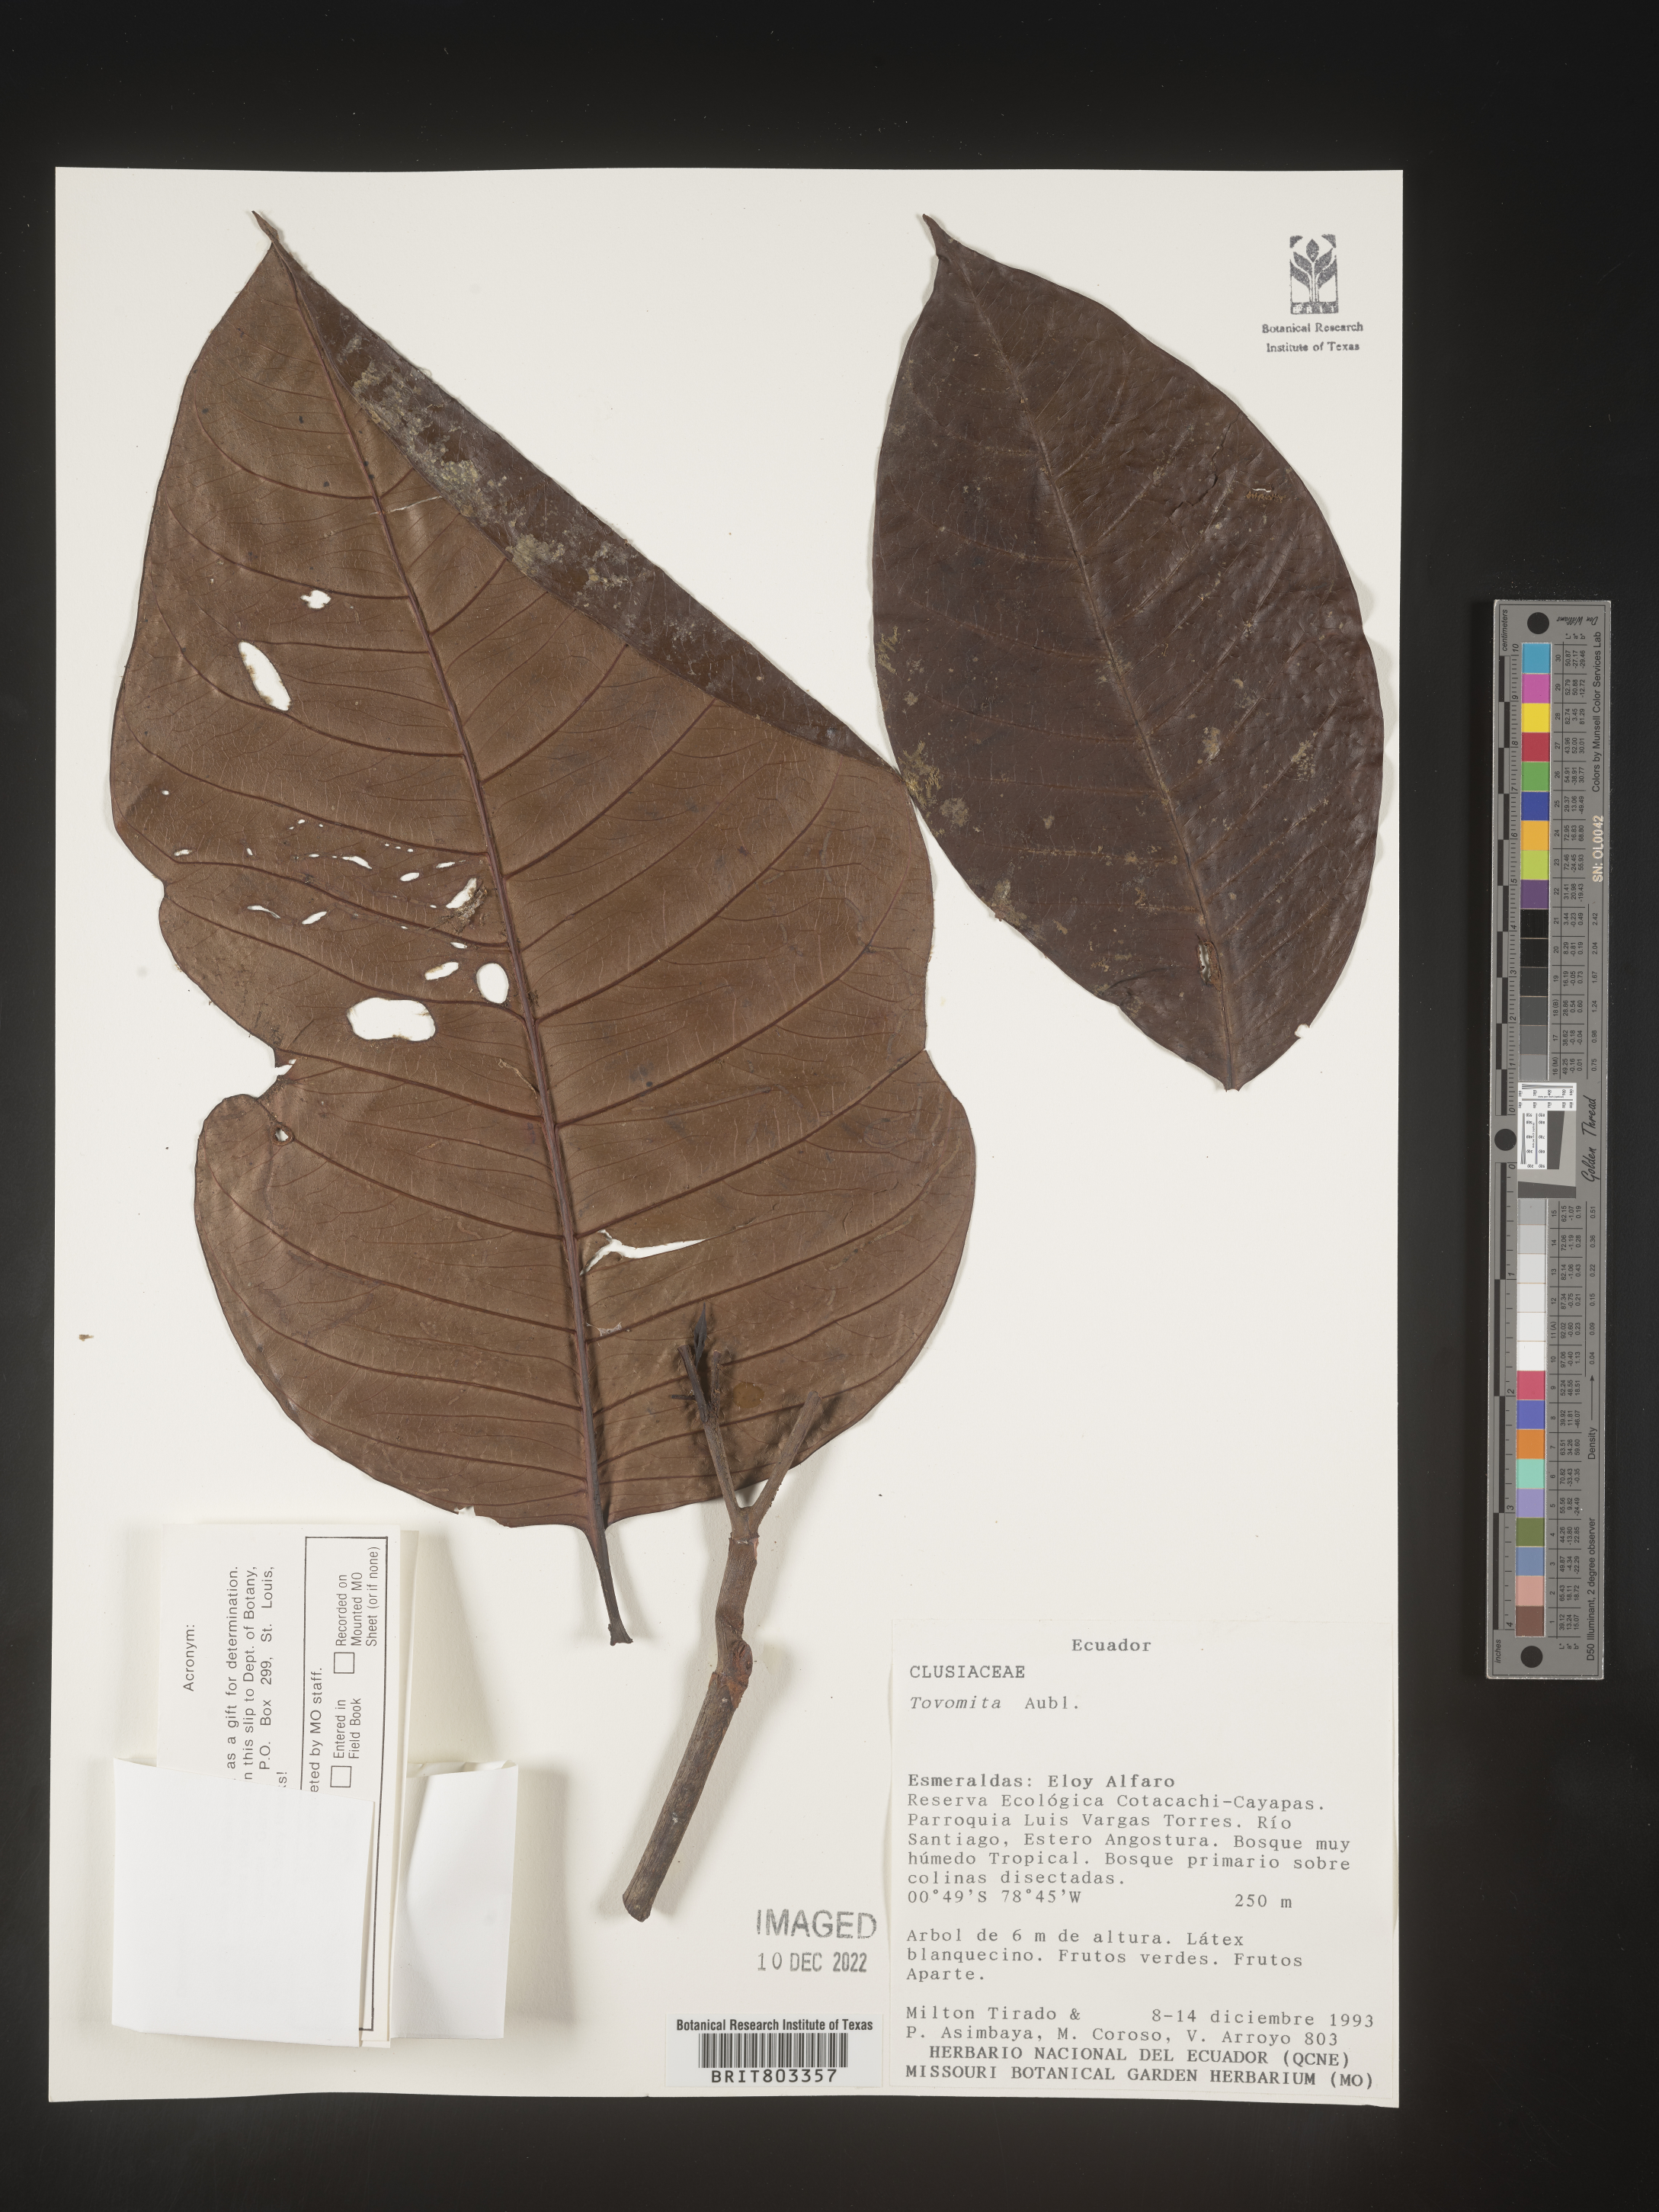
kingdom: Plantae
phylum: Tracheophyta
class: Magnoliopsida
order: Malpighiales
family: Clusiaceae
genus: Tovomita
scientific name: Tovomita
